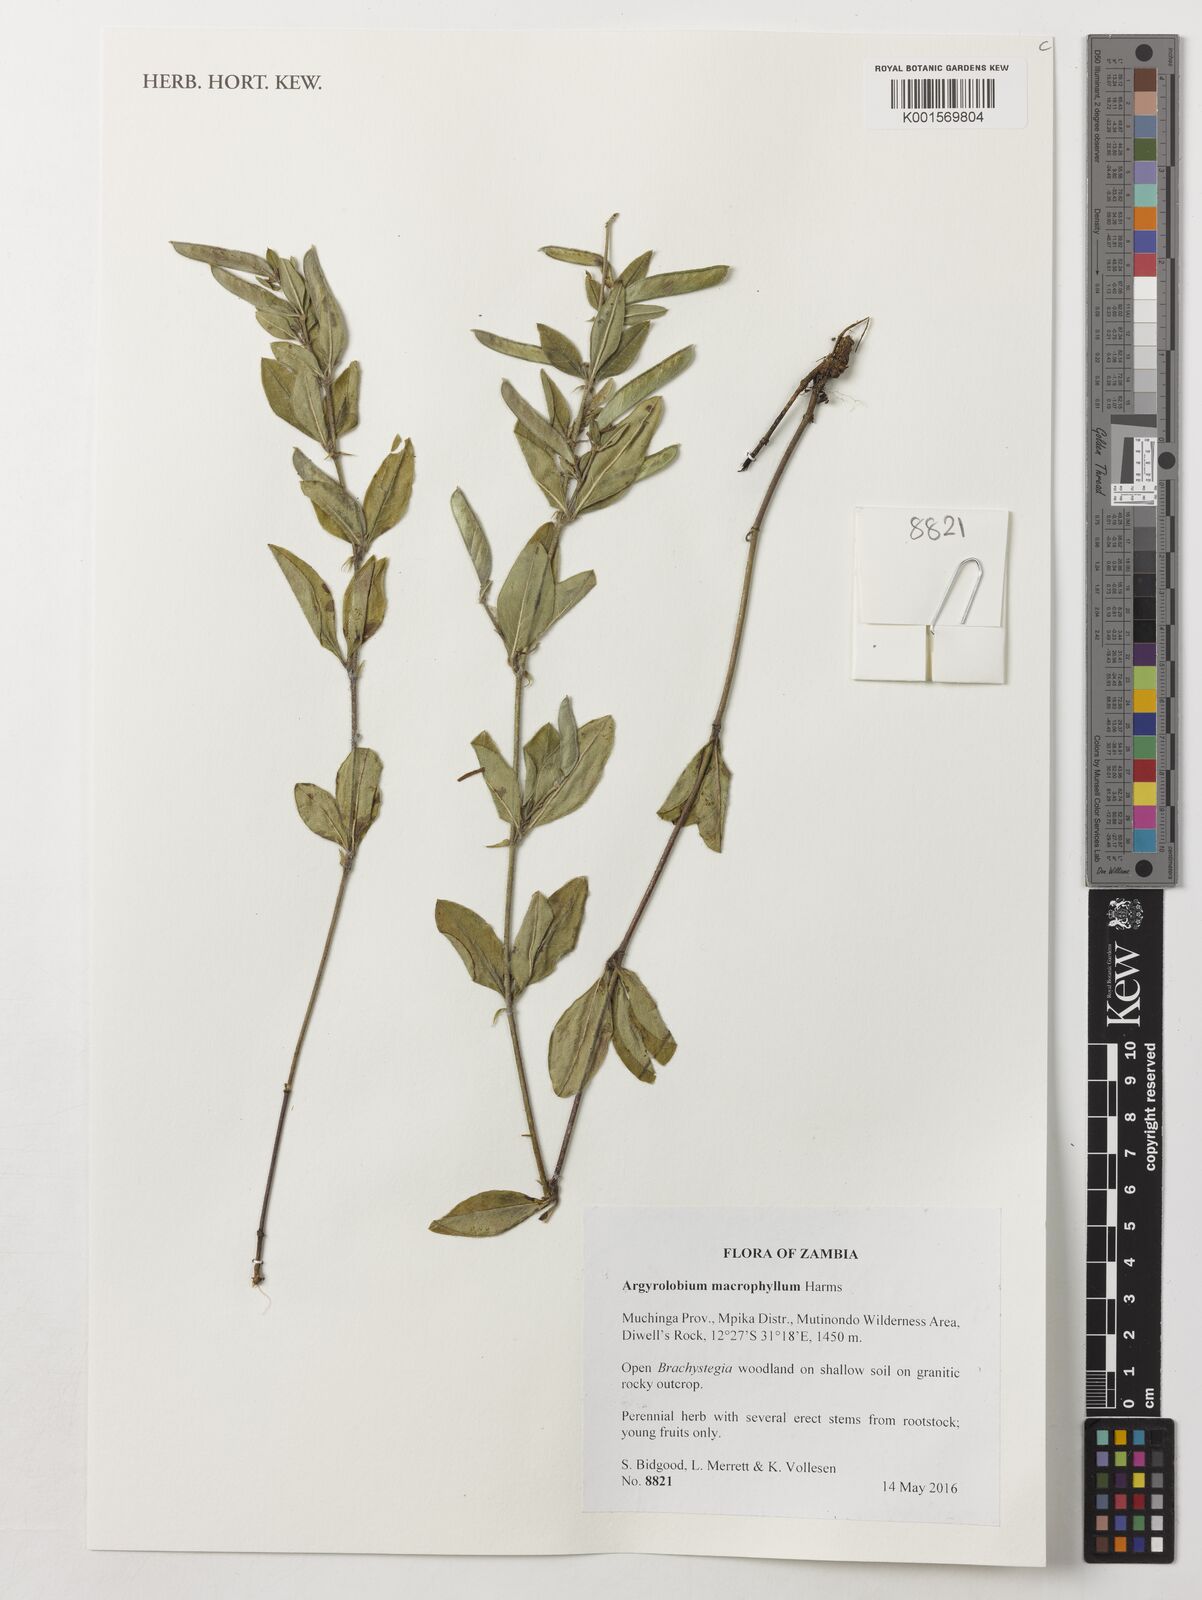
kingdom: Plantae
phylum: Tracheophyta
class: Magnoliopsida
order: Fabales
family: Fabaceae
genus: Argyrolobium
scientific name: Argyrolobium macrophyllum
